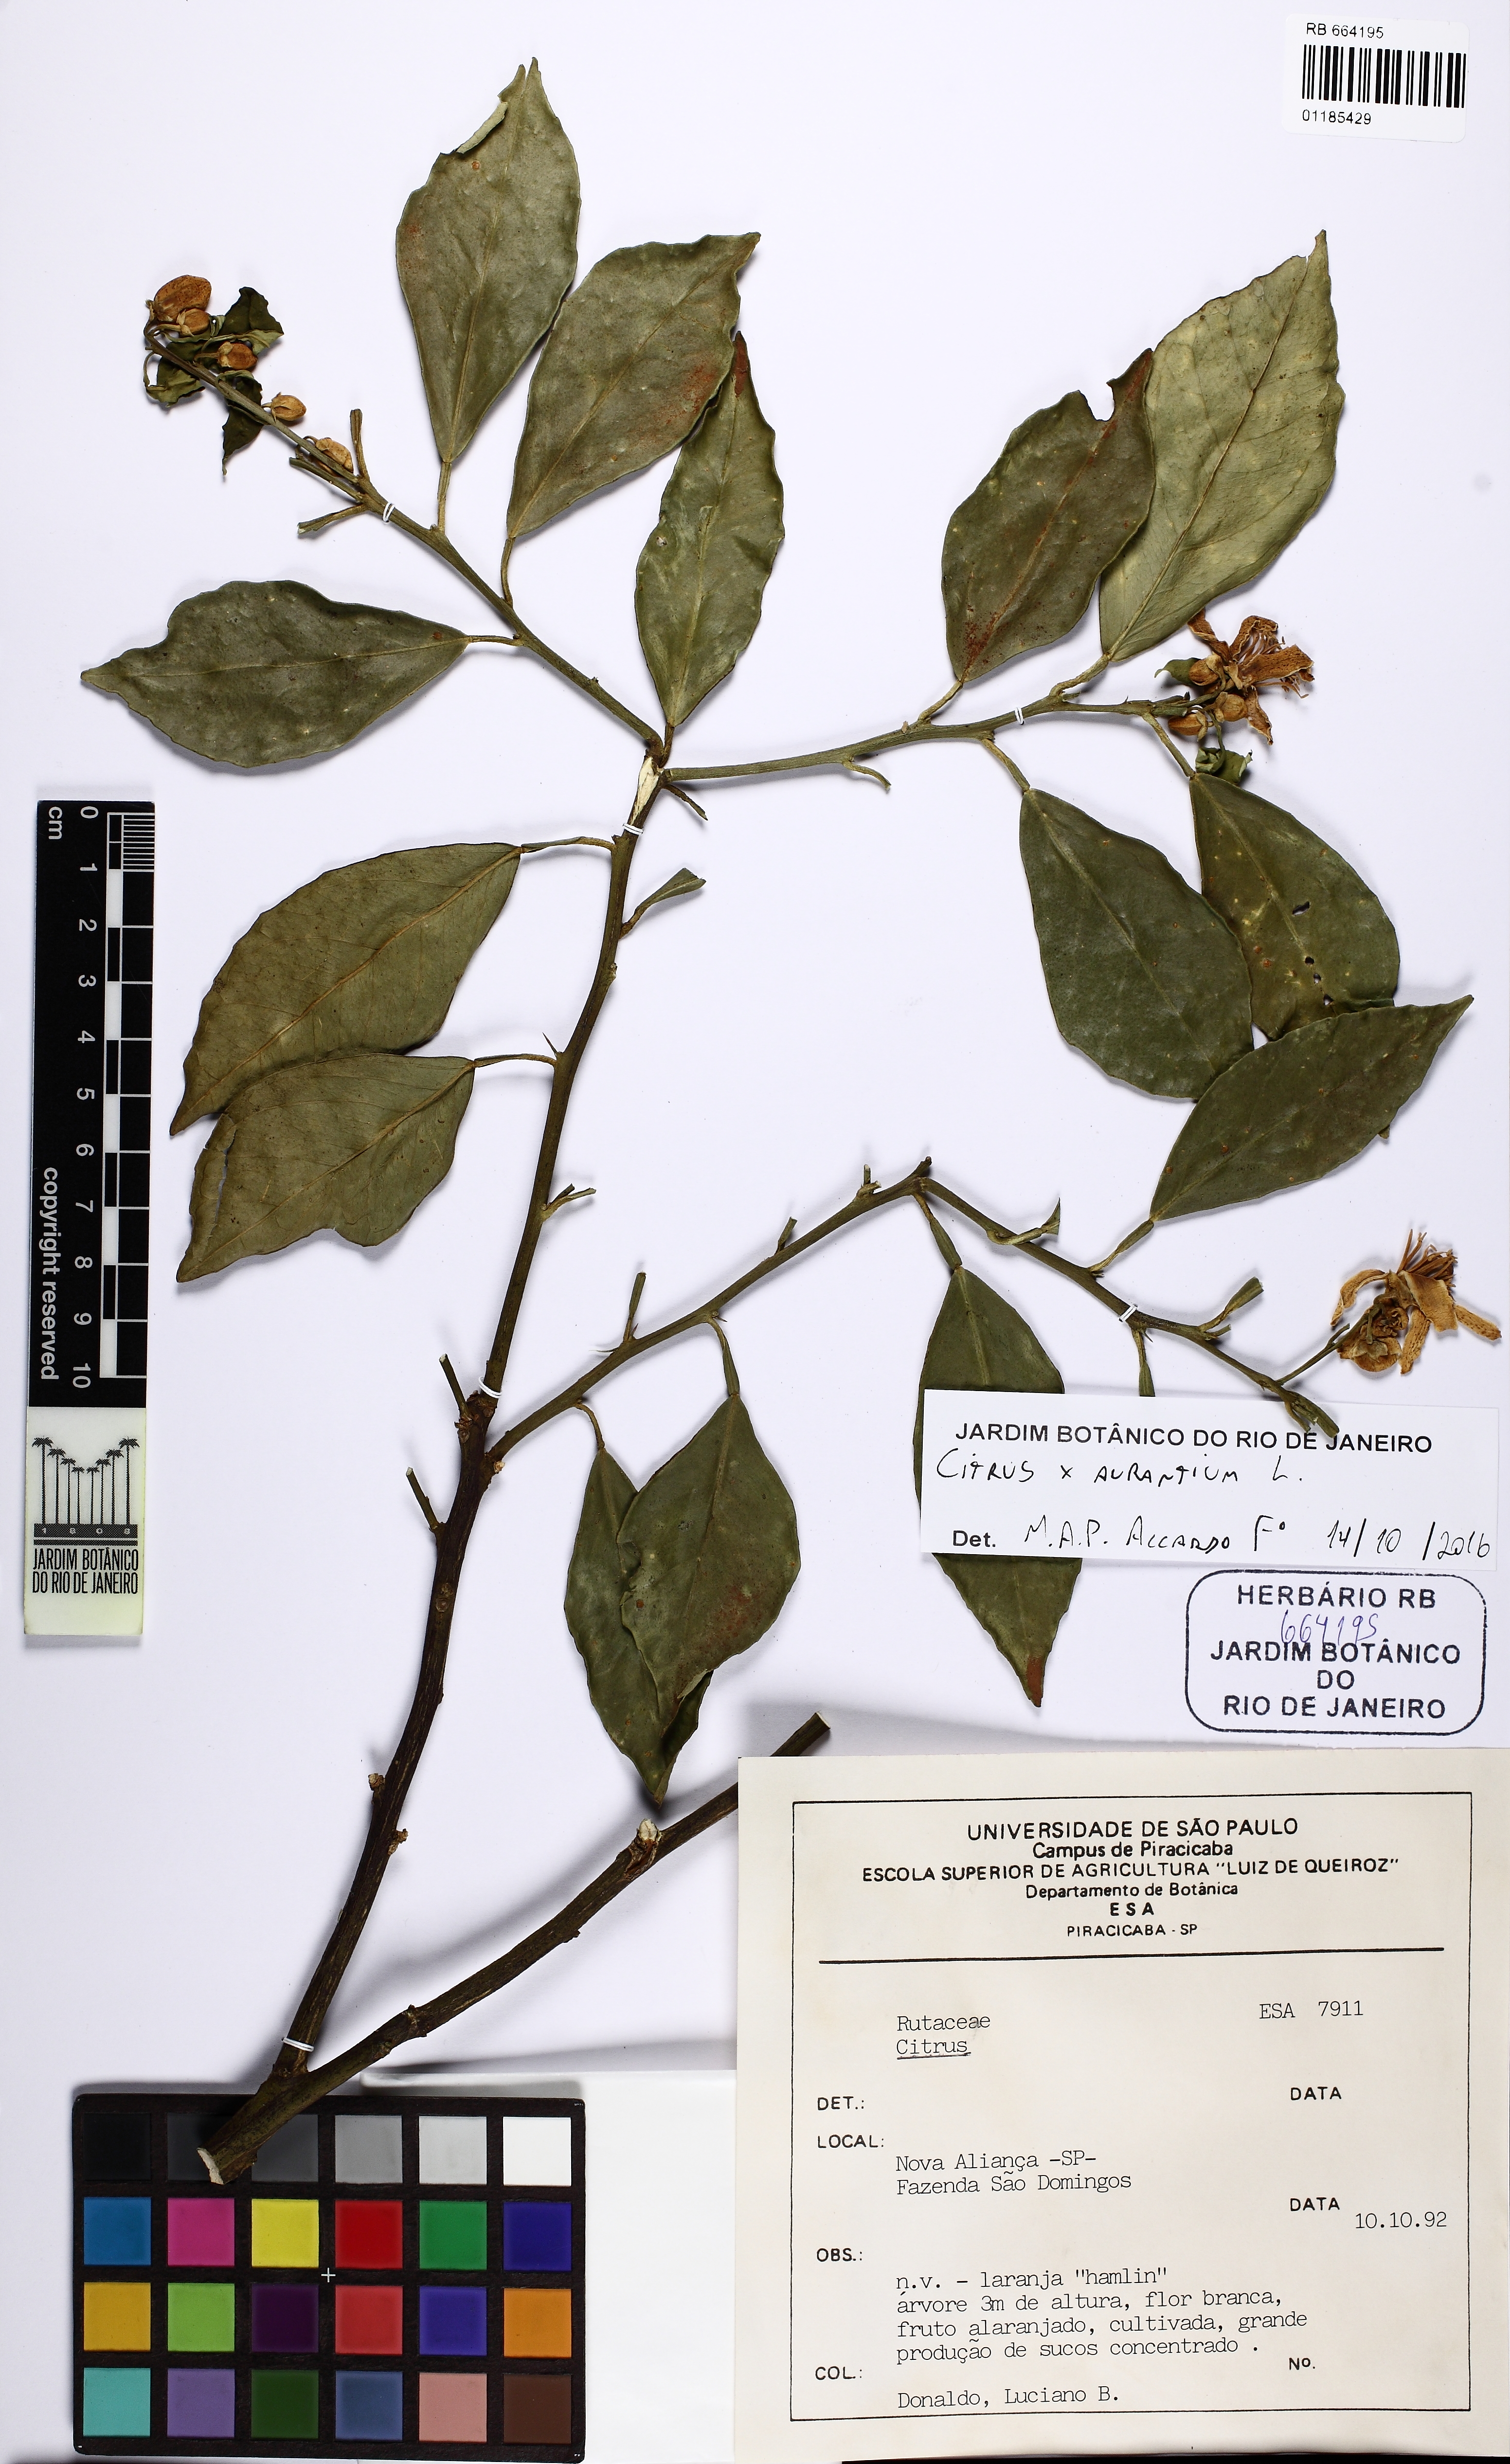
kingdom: Plantae
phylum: Tracheophyta
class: Magnoliopsida
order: Sapindales
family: Rutaceae
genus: Citrus
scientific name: Citrus aurantium
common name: Sour orange
